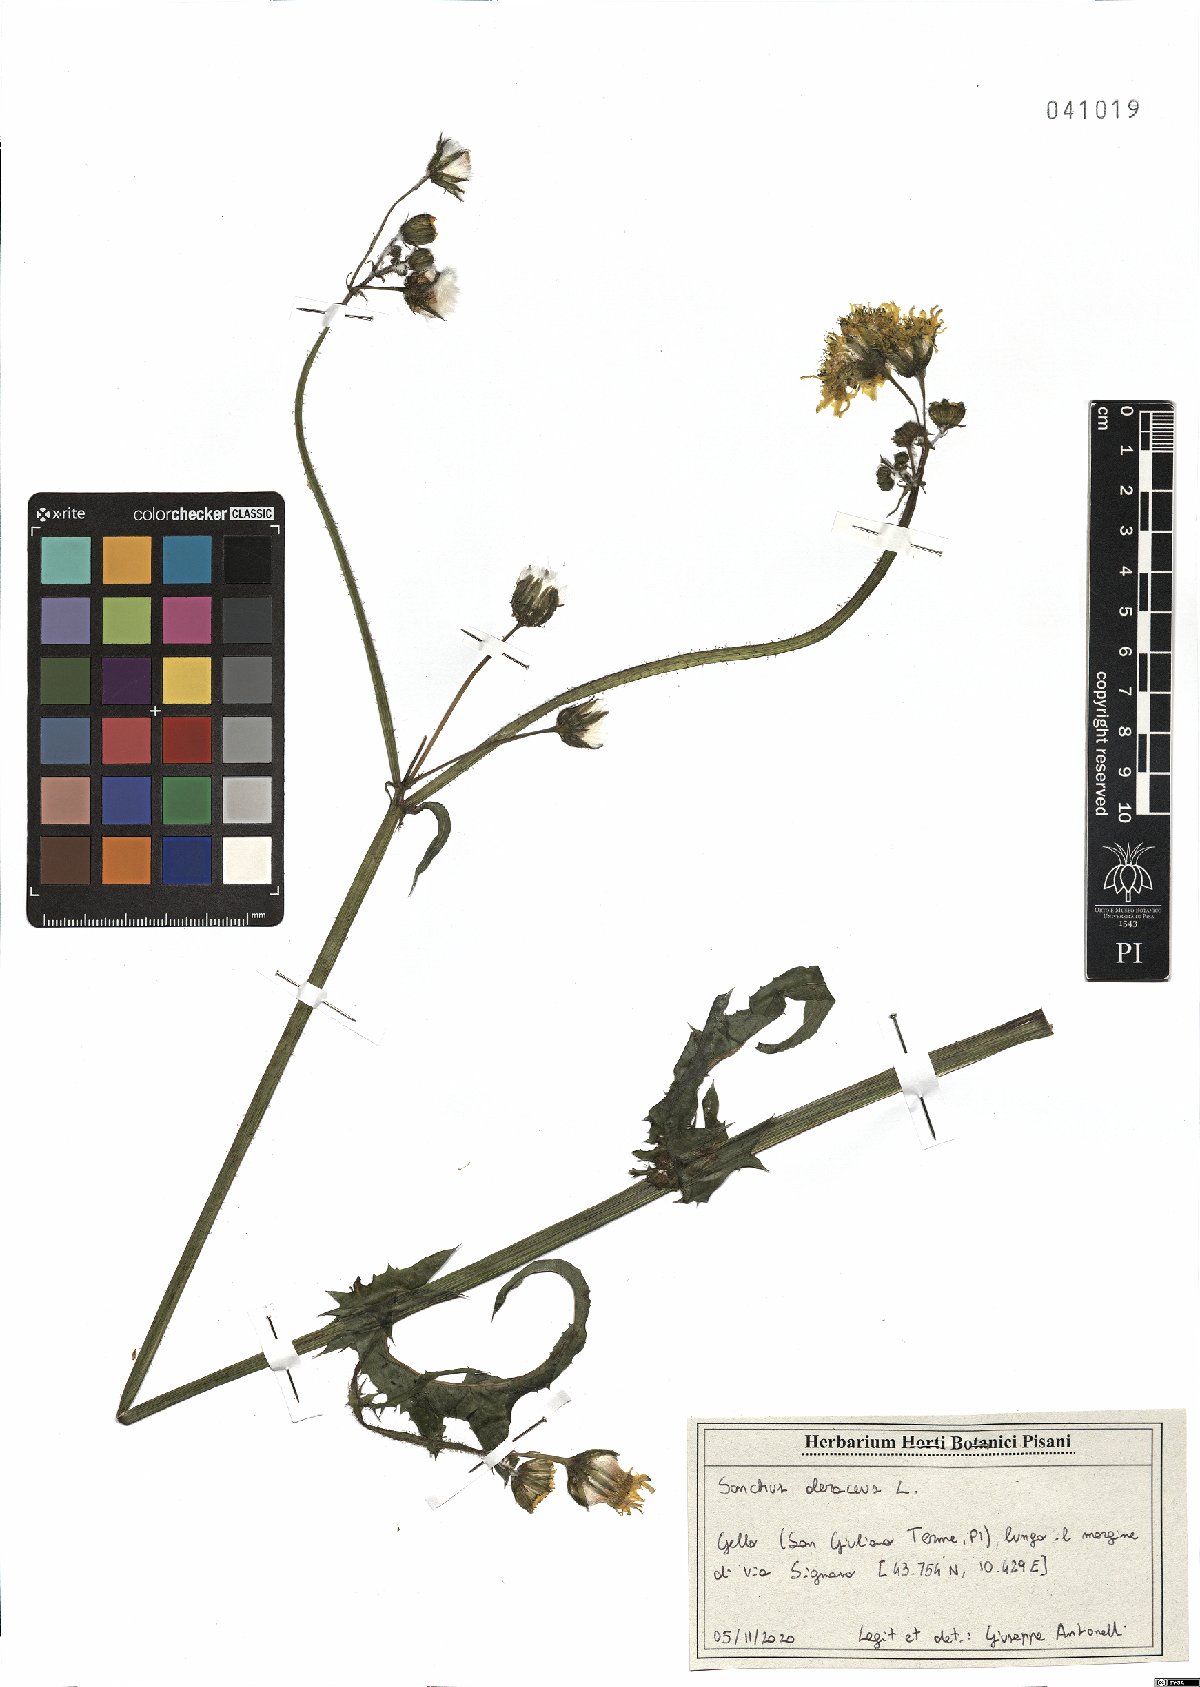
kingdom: Plantae
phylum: Tracheophyta
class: Magnoliopsida
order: Asterales
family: Asteraceae
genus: Sonchus
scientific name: Sonchus oleraceus
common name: Common sowthistle
